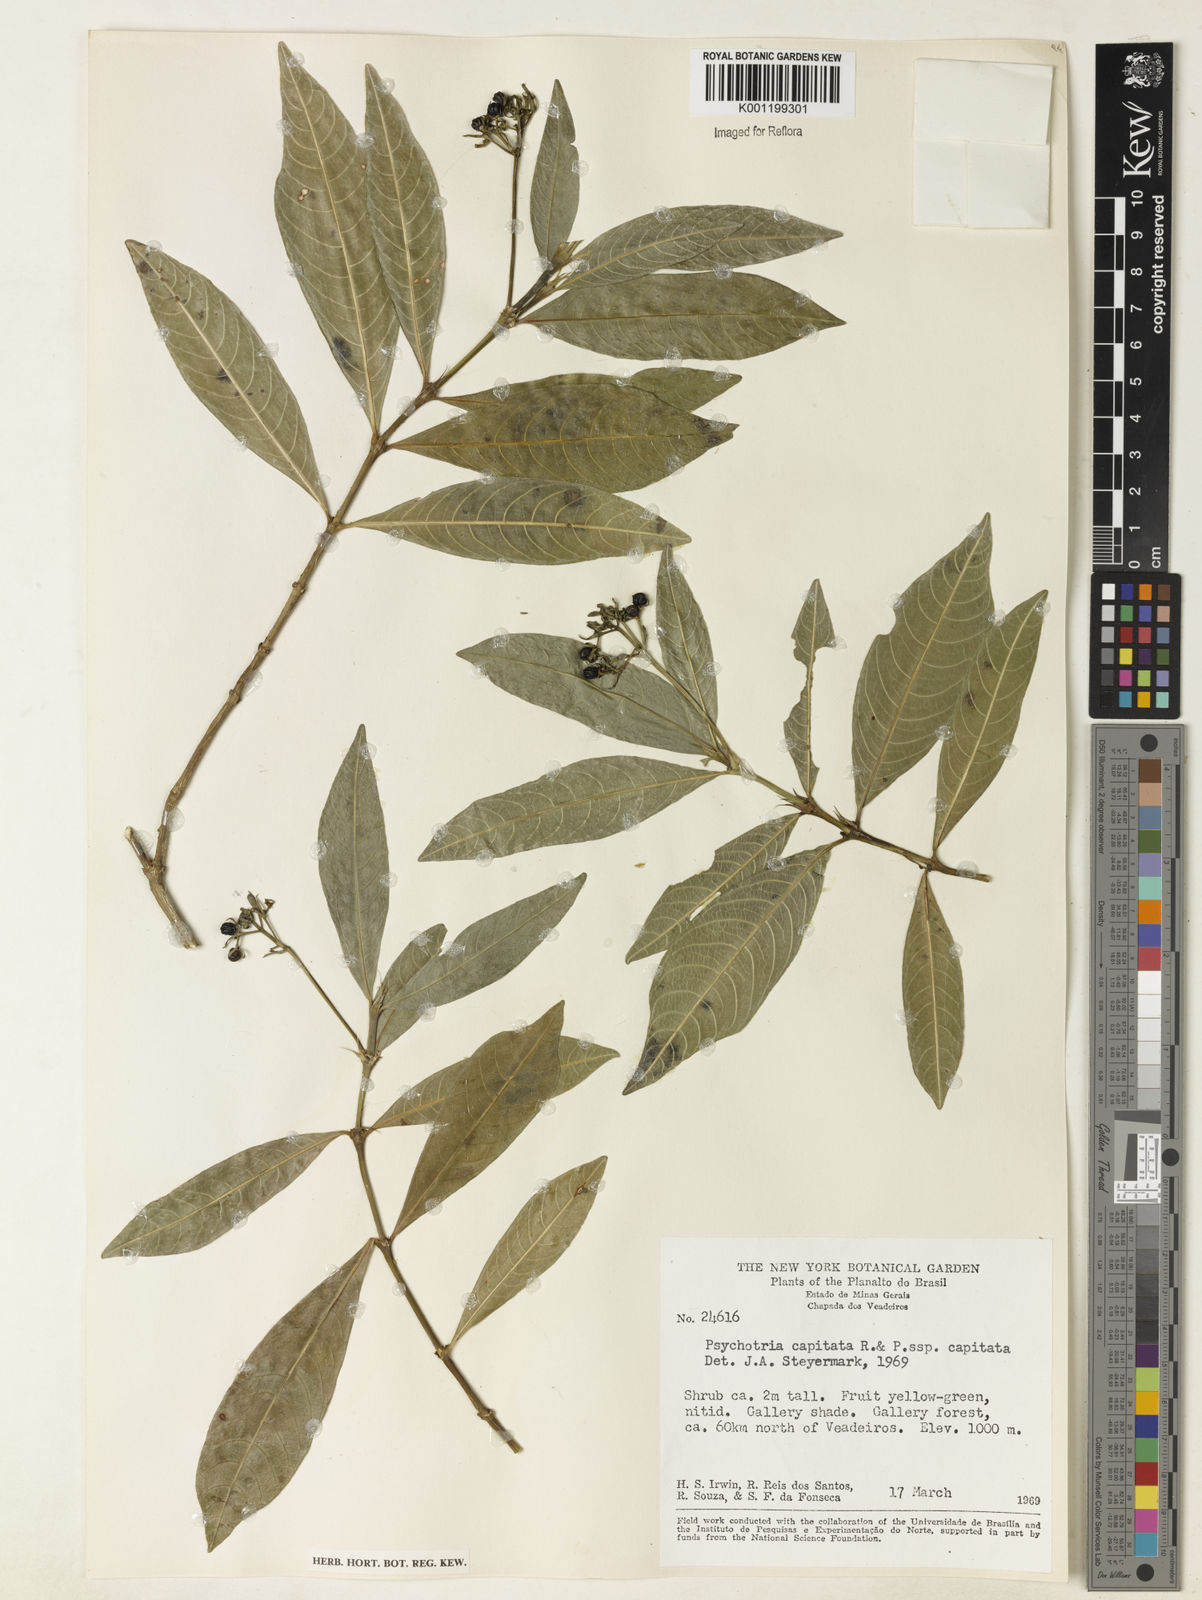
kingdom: Plantae
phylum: Tracheophyta
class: Magnoliopsida
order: Gentianales
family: Rubiaceae
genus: Palicourea
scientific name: Palicourea violacea
